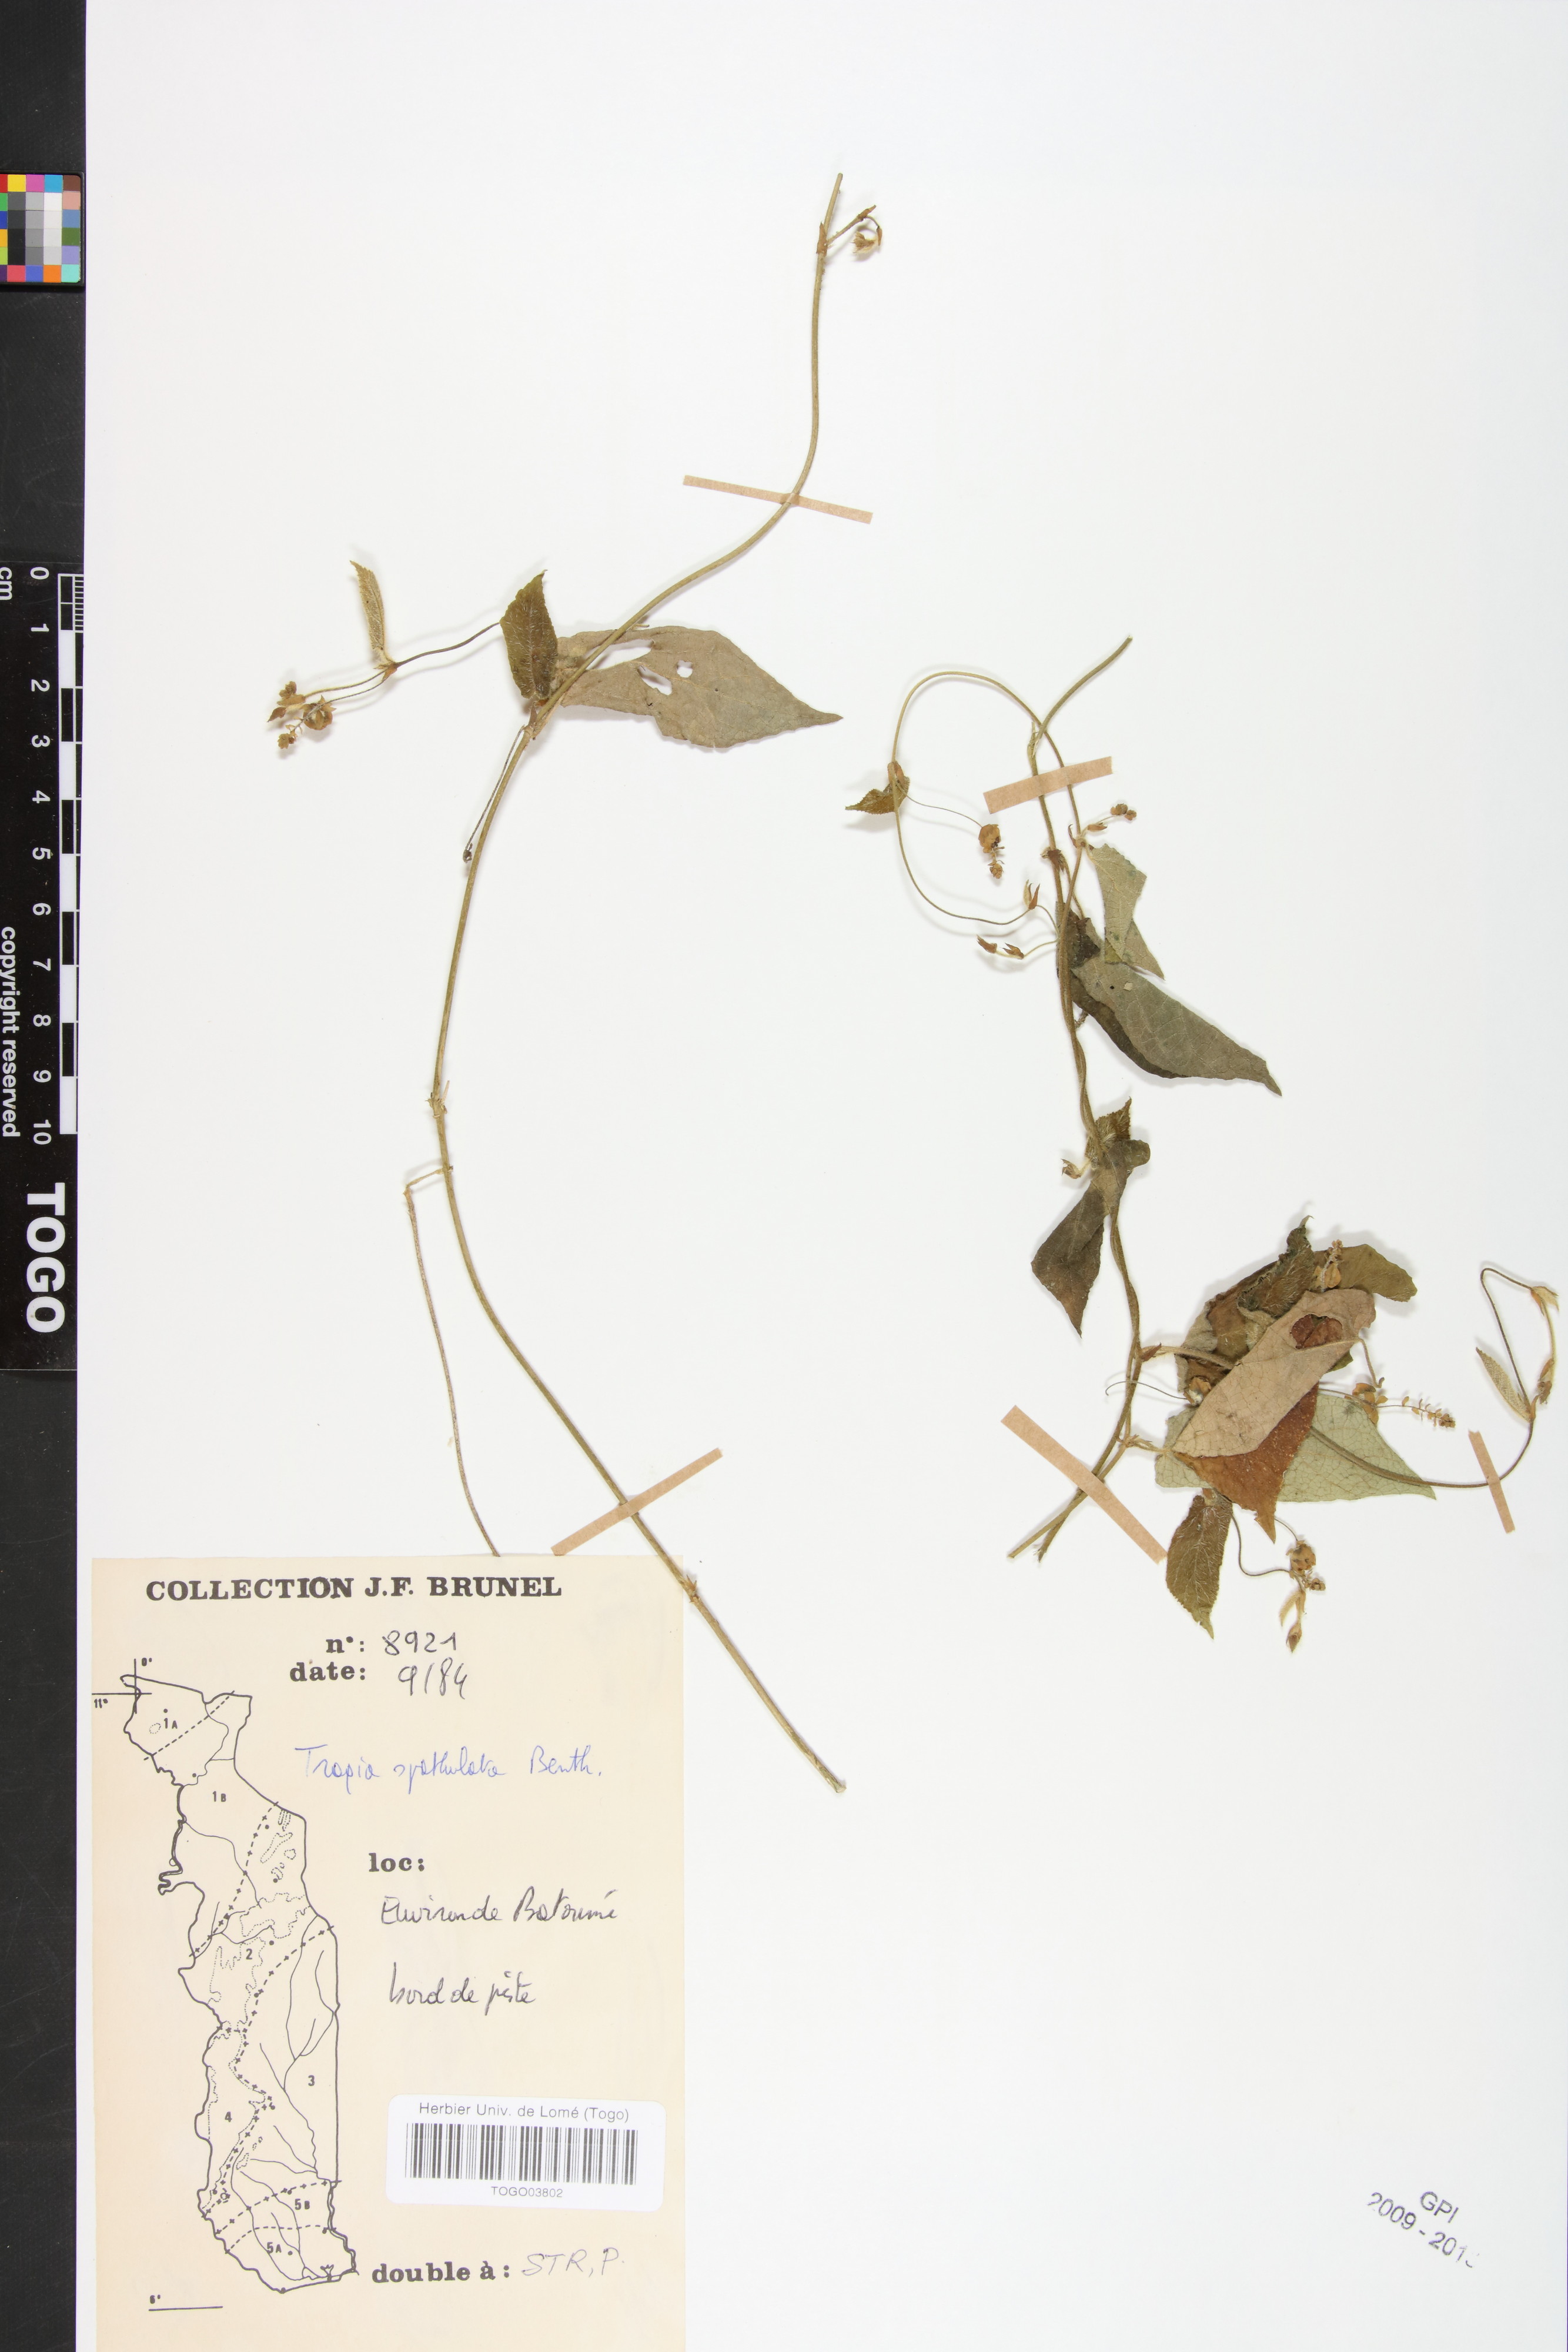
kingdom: Plantae
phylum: Tracheophyta
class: Magnoliopsida
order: Malpighiales
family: Euphorbiaceae
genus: Tragia
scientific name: Tragia spathulata
